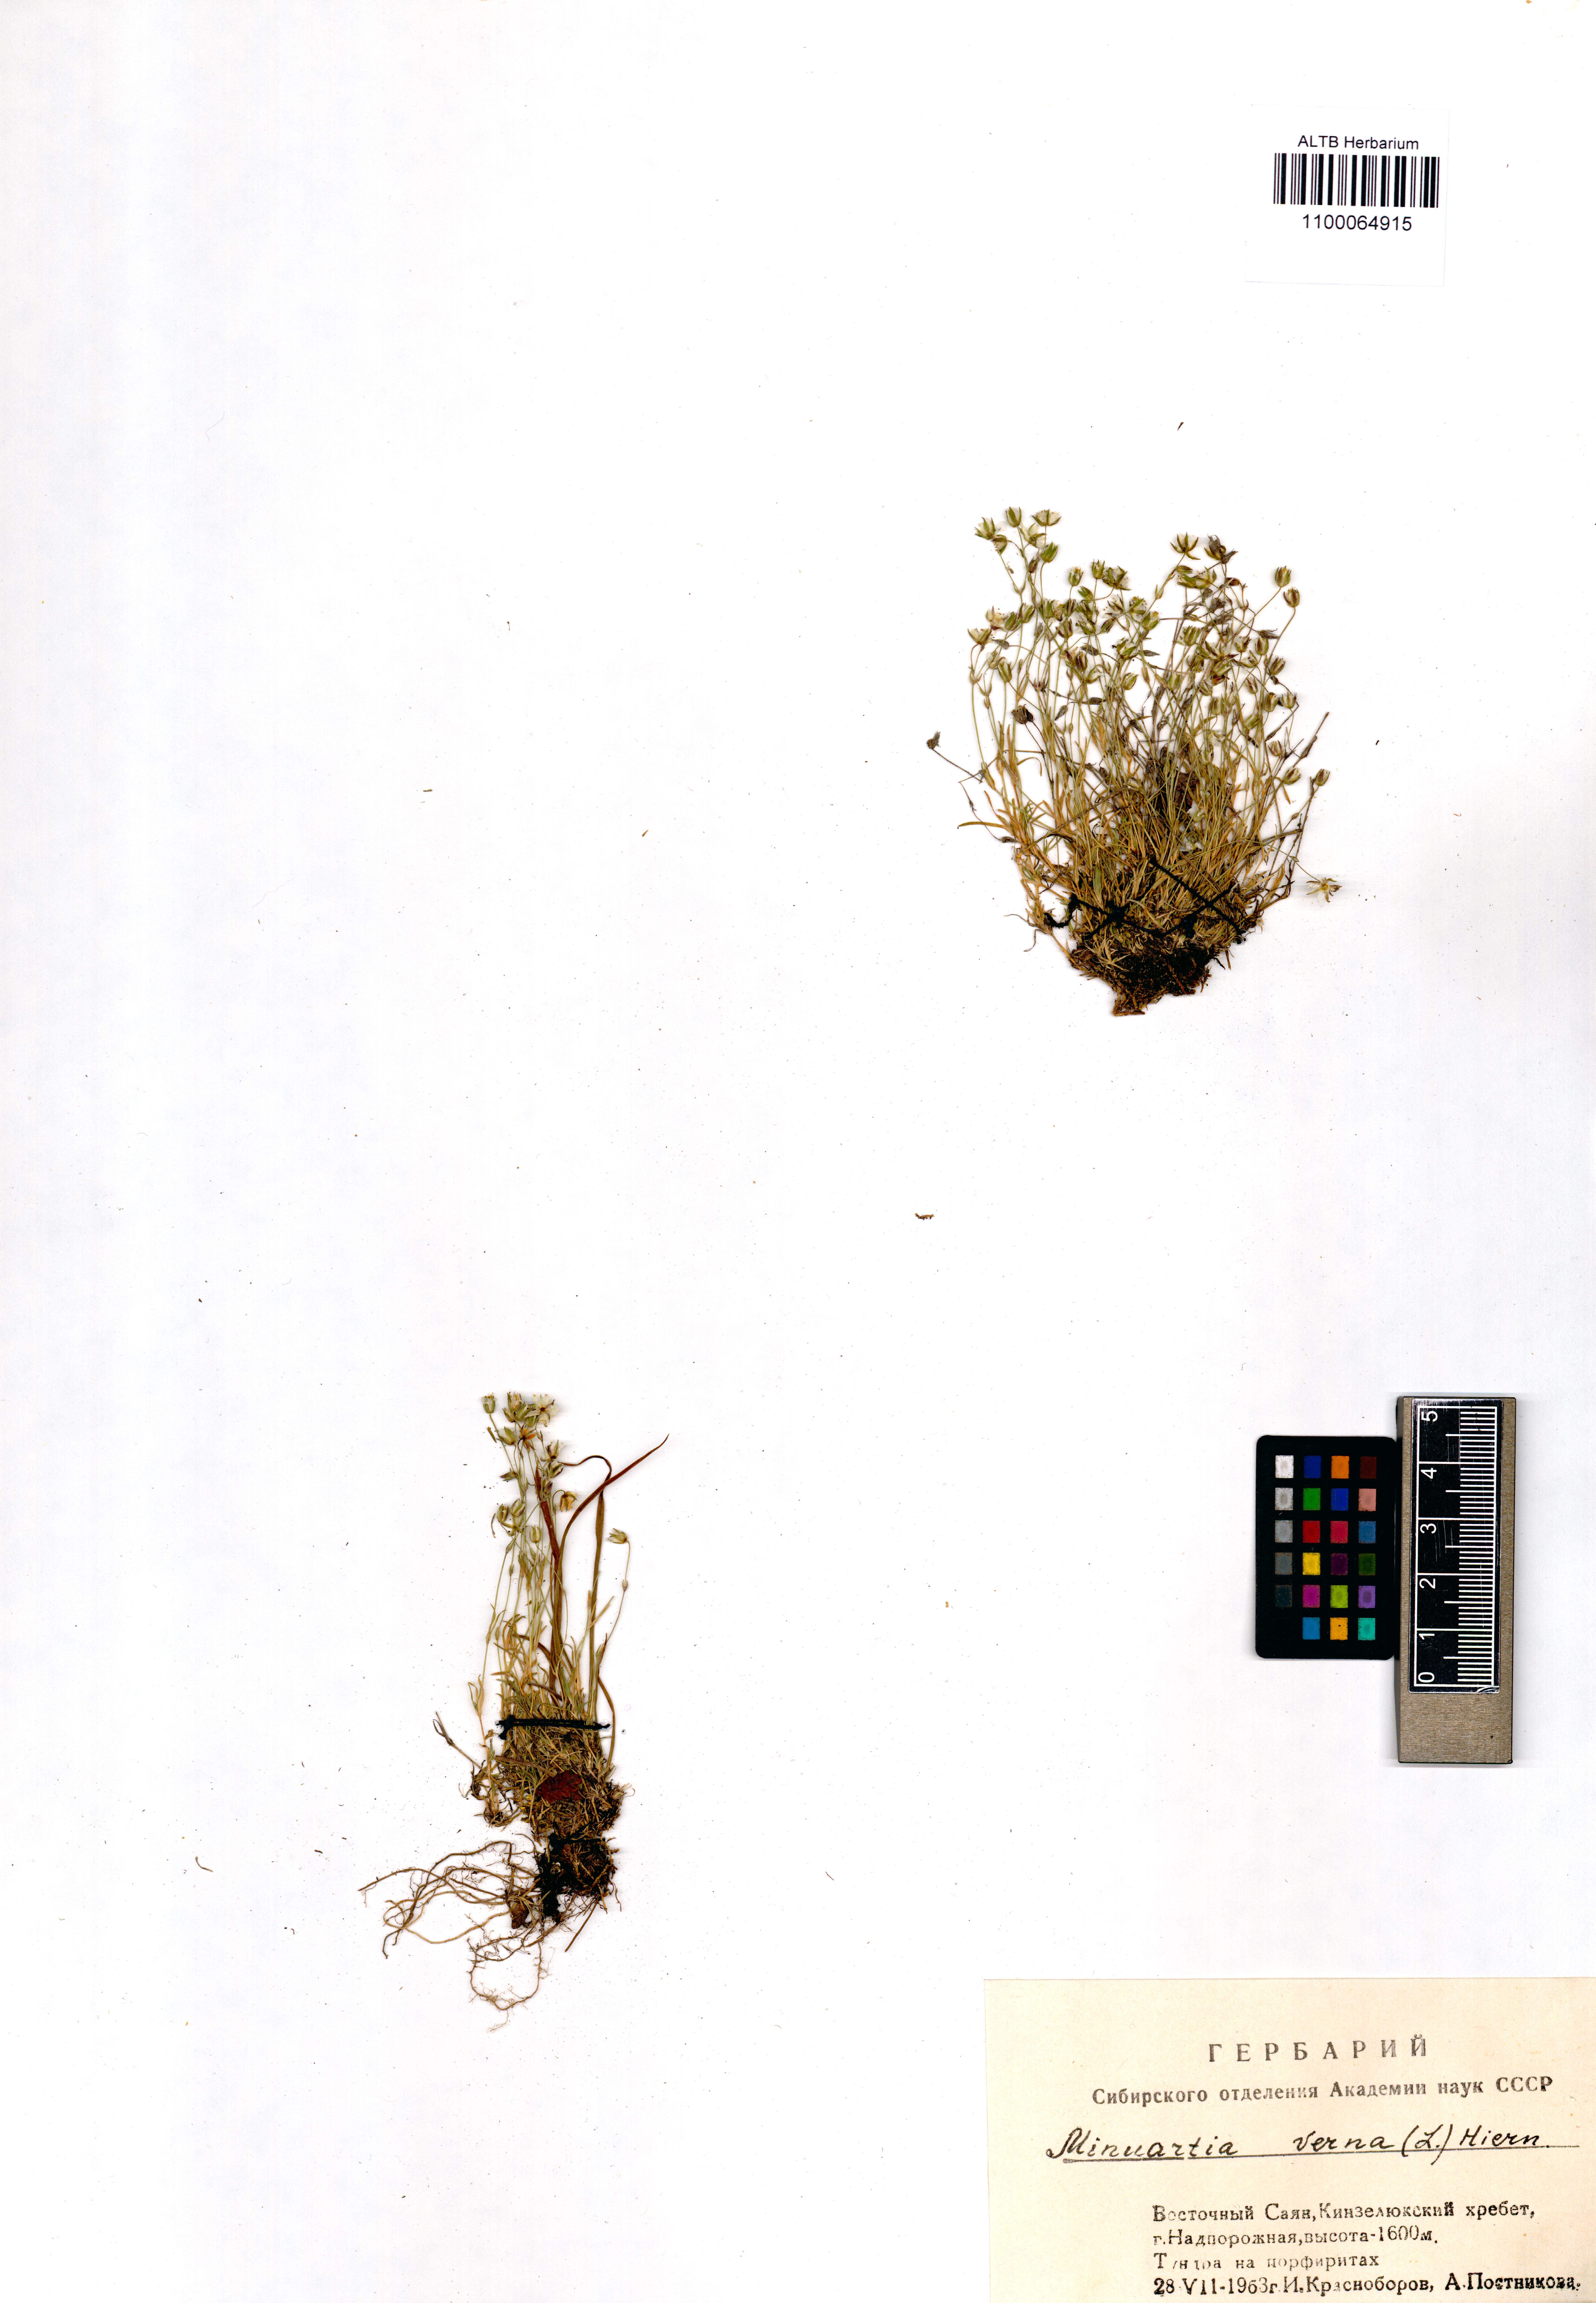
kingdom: Plantae
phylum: Tracheophyta
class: Magnoliopsida
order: Caryophyllales
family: Caryophyllaceae
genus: Sabulina
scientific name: Sabulina verna
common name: Spring sandwort
